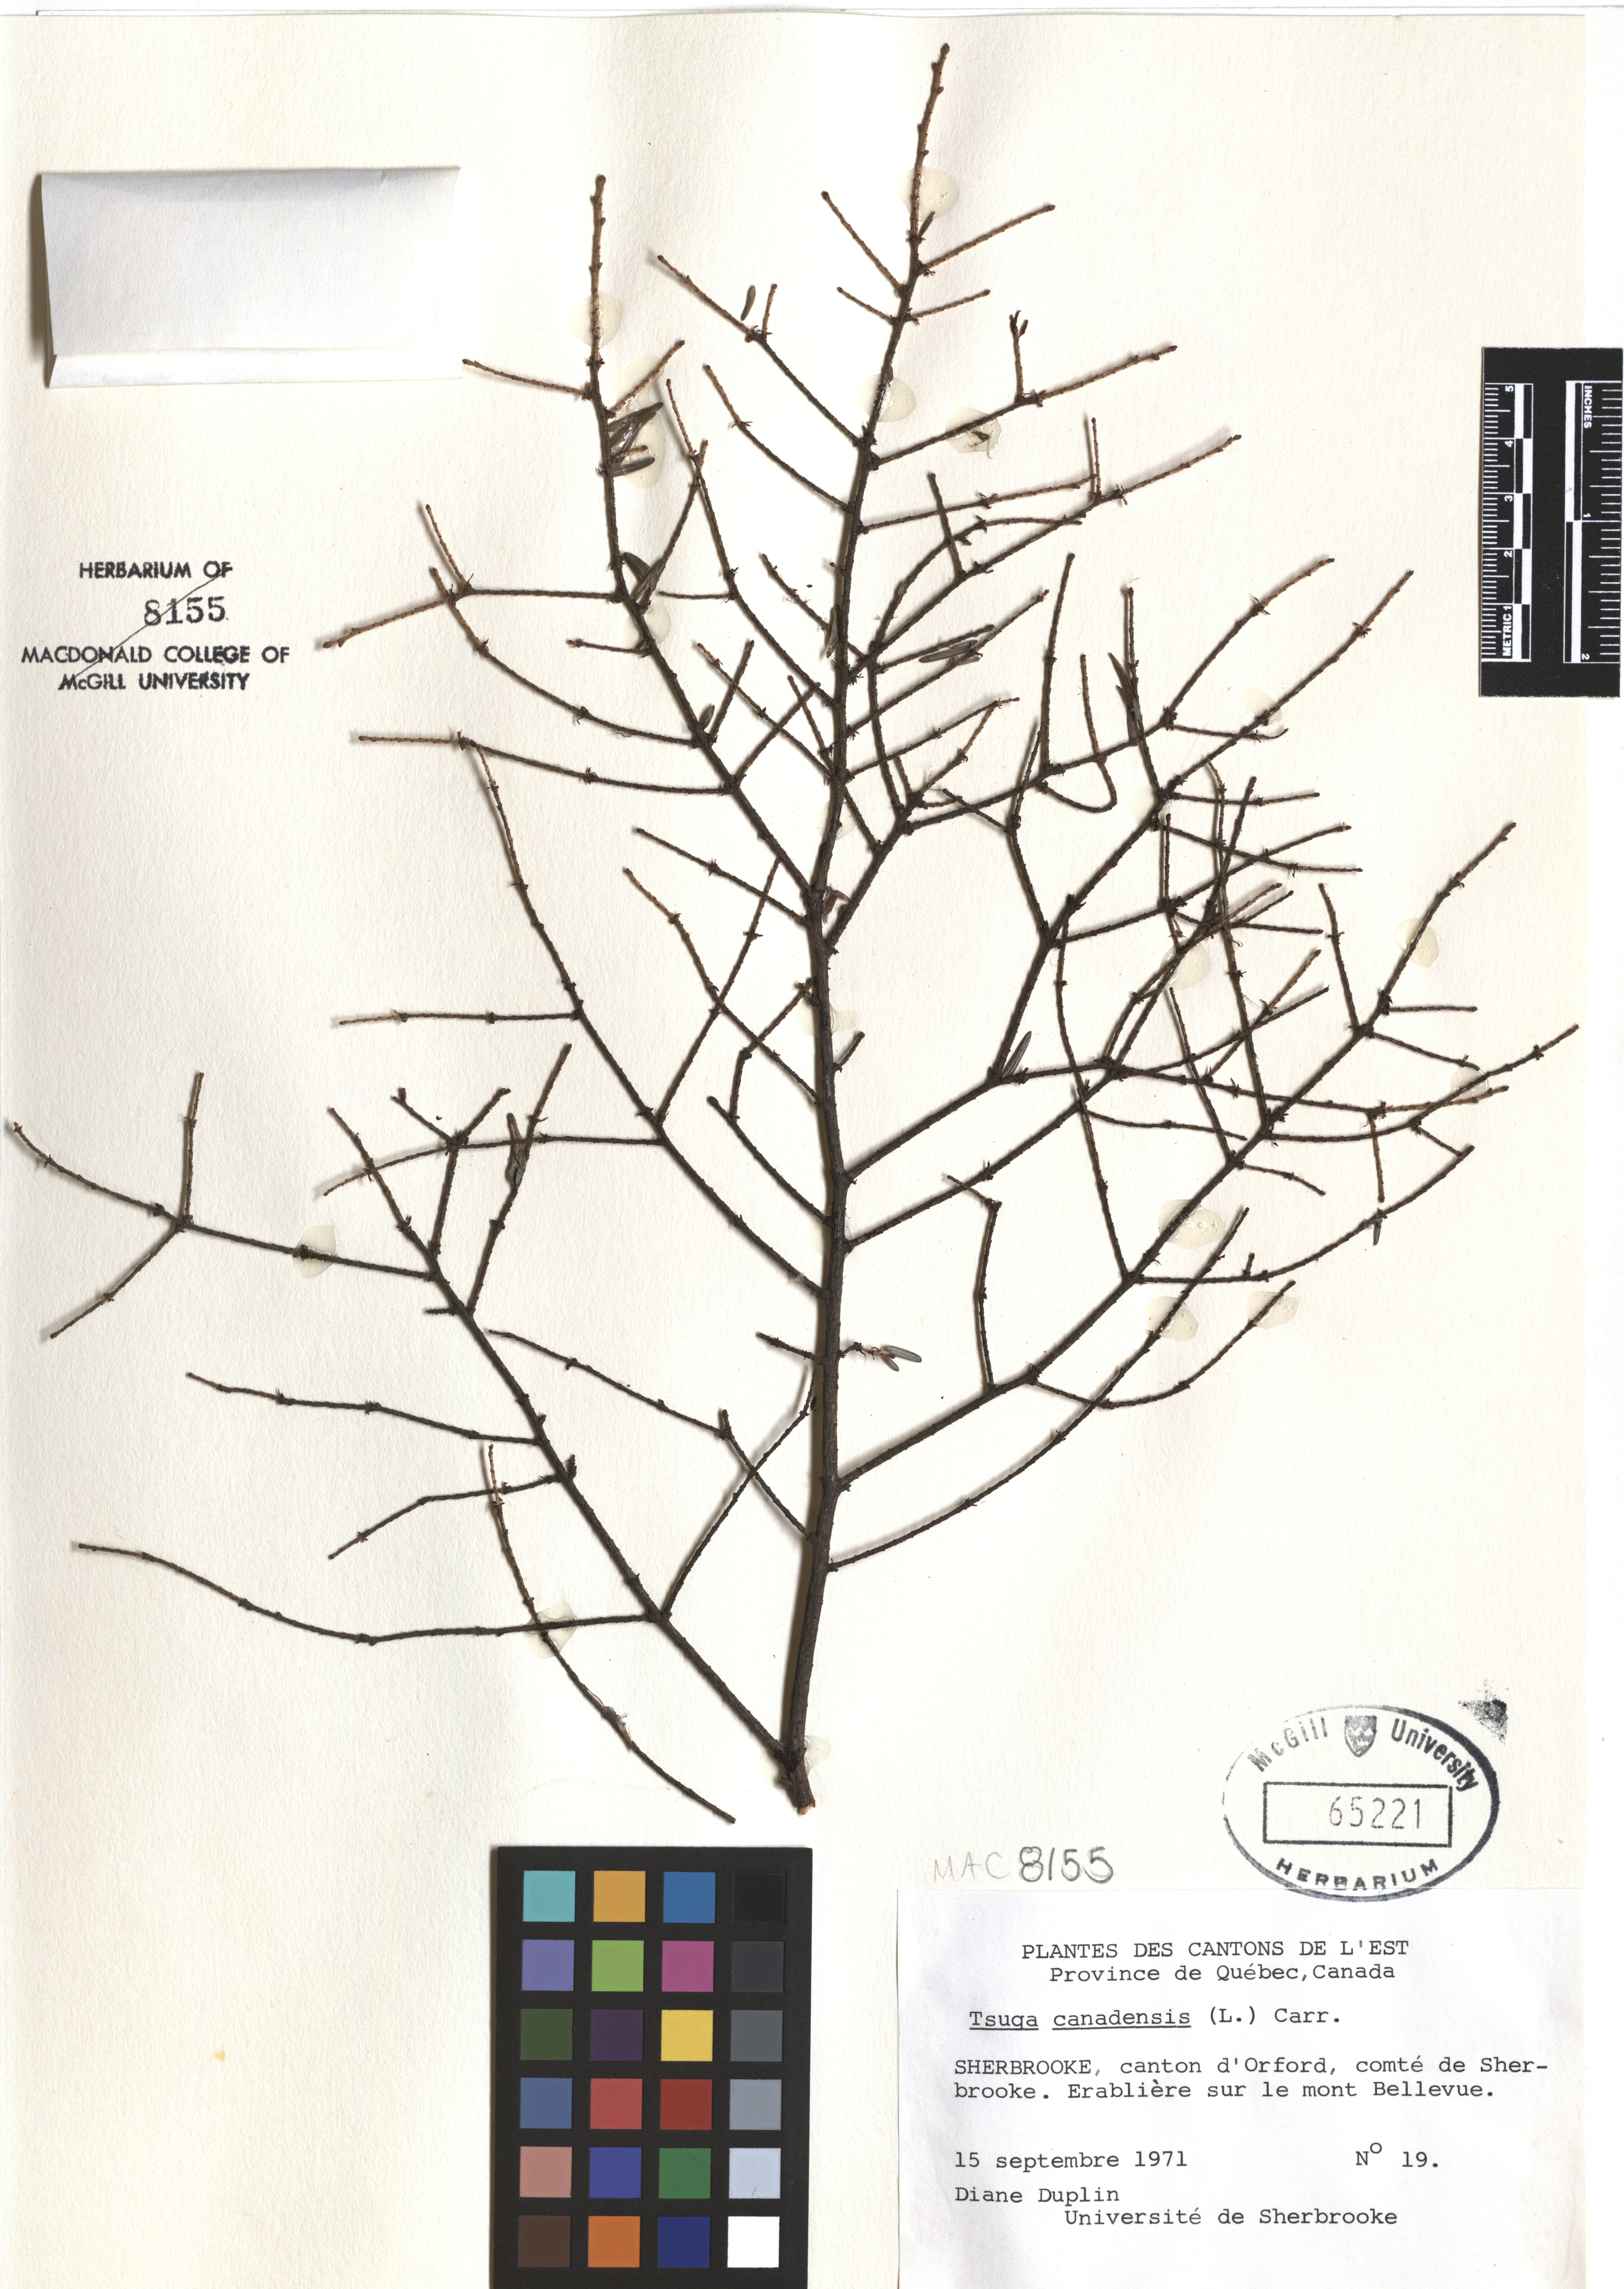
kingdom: Plantae
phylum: Tracheophyta
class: Pinopsida
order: Pinales
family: Pinaceae
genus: Tsuga
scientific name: Tsuga canadensis
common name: Eastern hemlock
